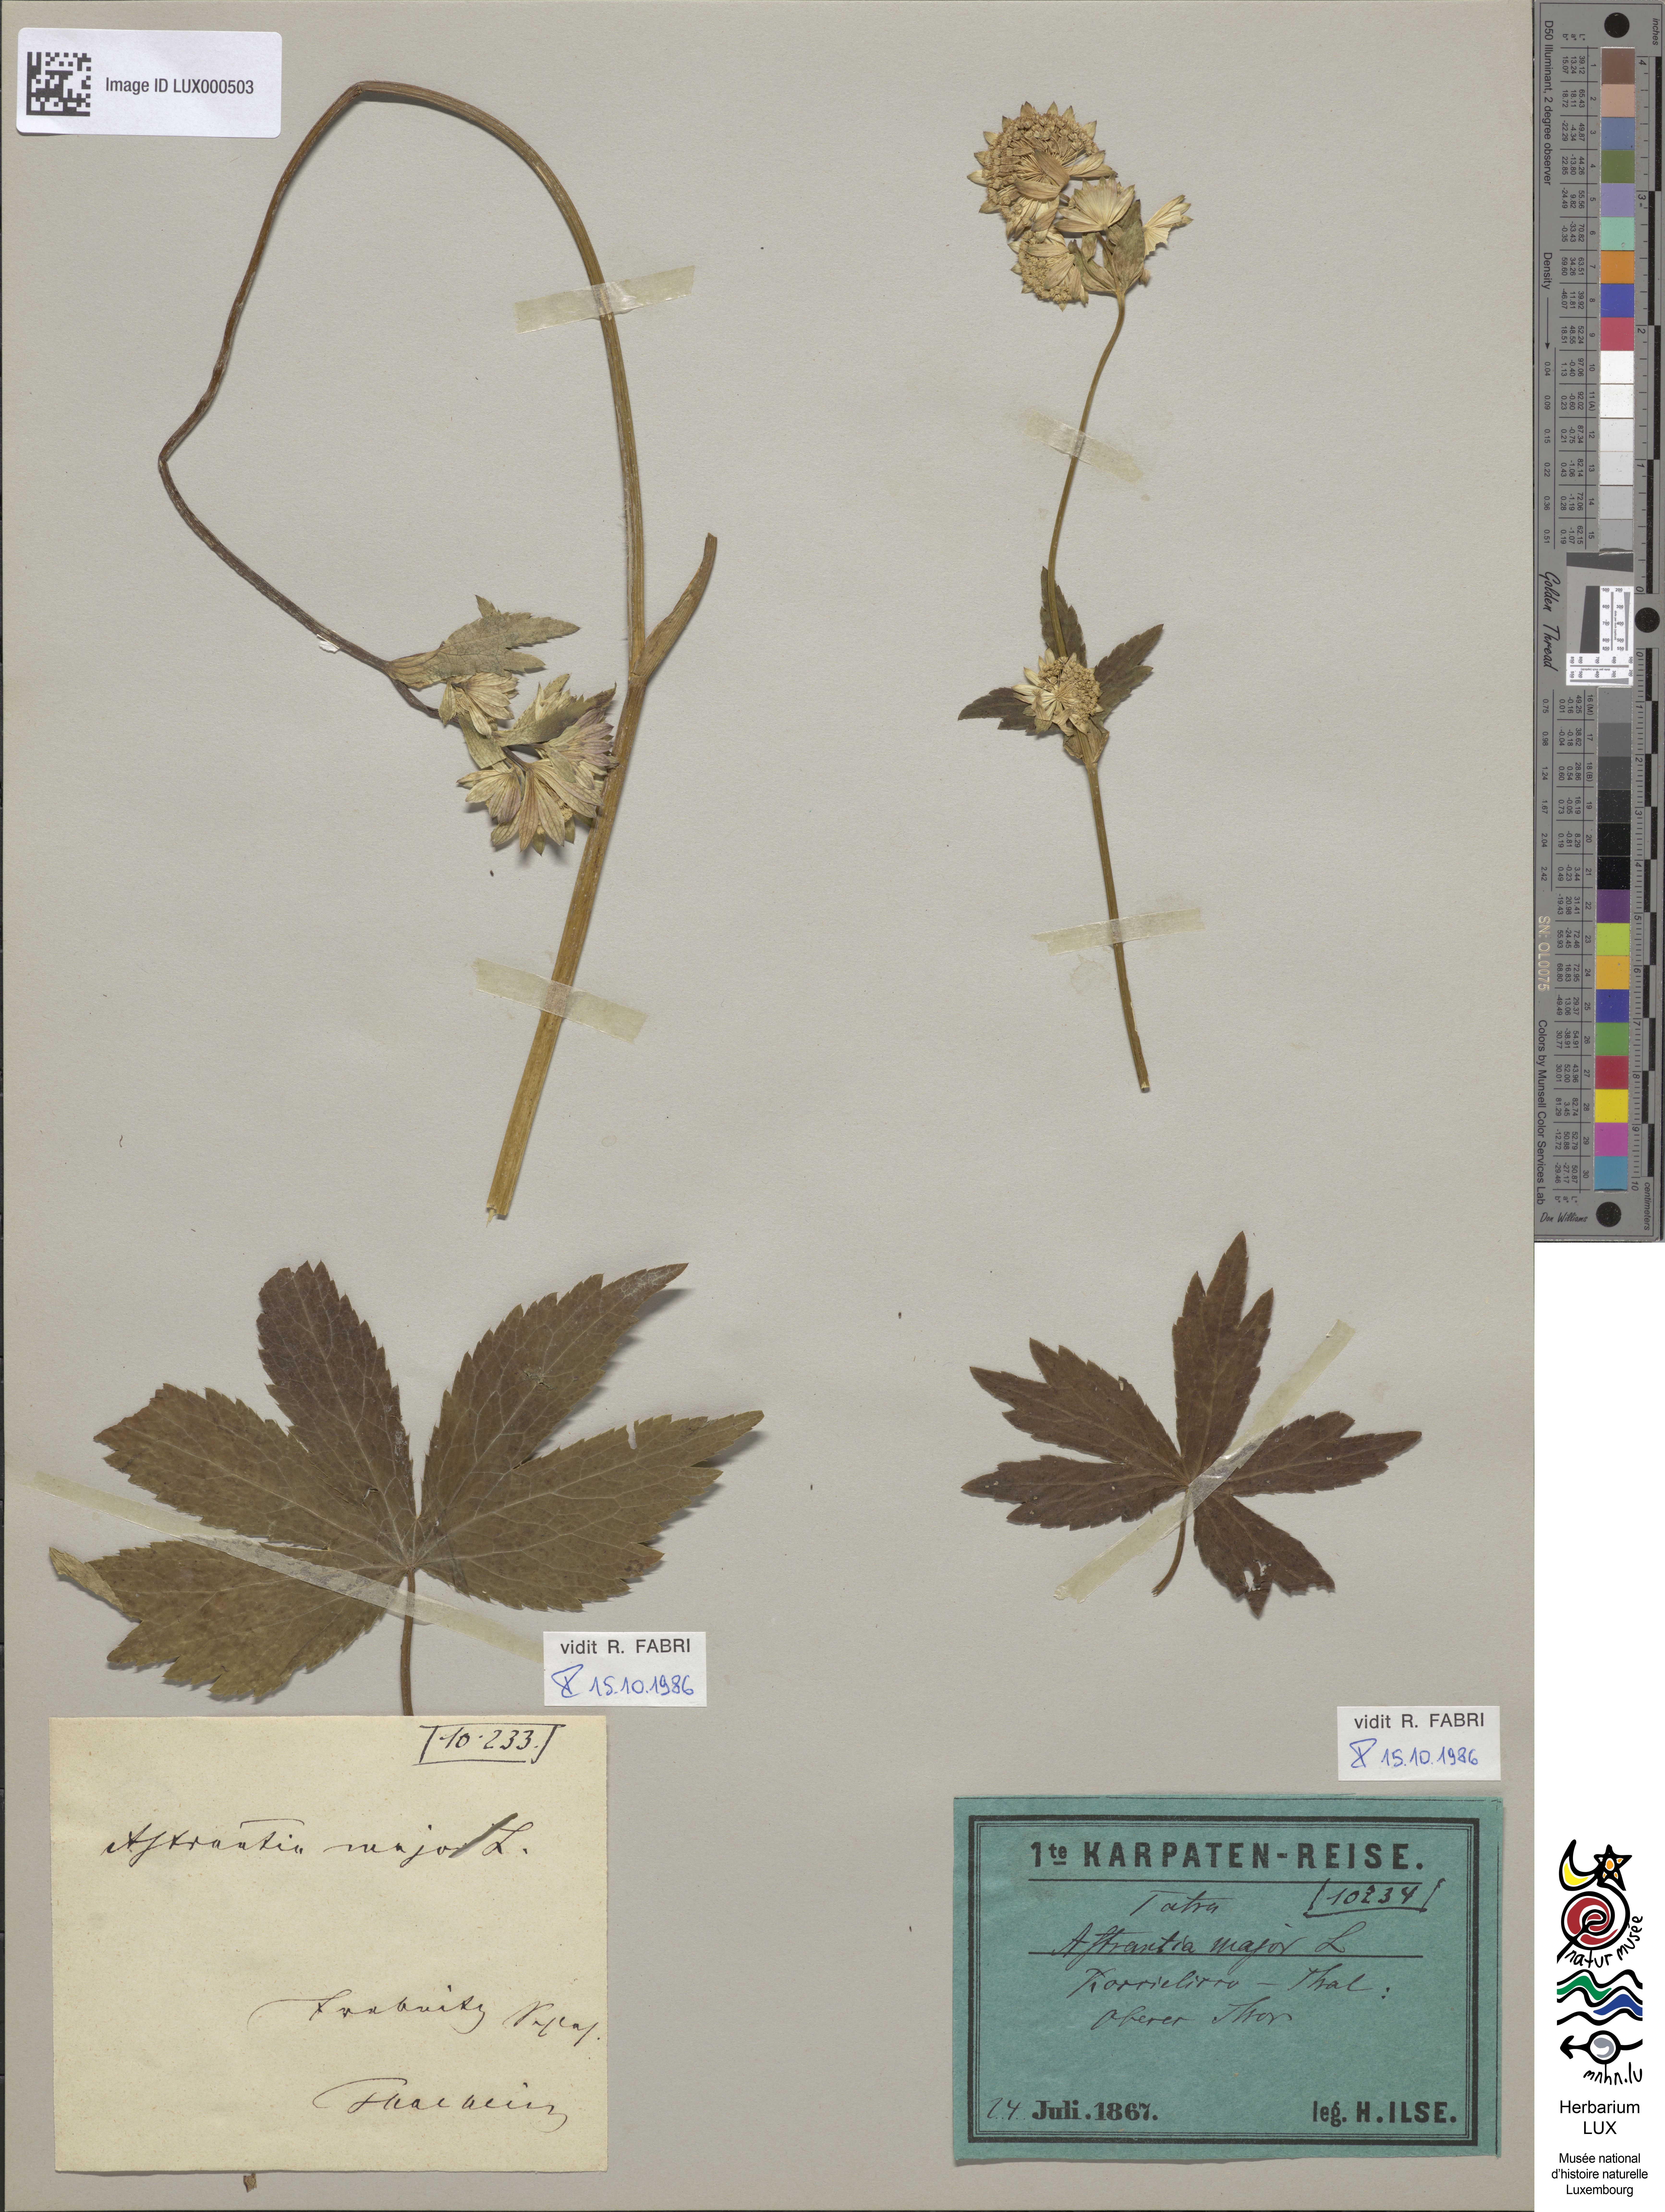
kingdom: Plantae
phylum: Tracheophyta
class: Magnoliopsida
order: Apiales
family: Apiaceae
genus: Astrantia
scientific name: Astrantia major
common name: Greater masterwort
